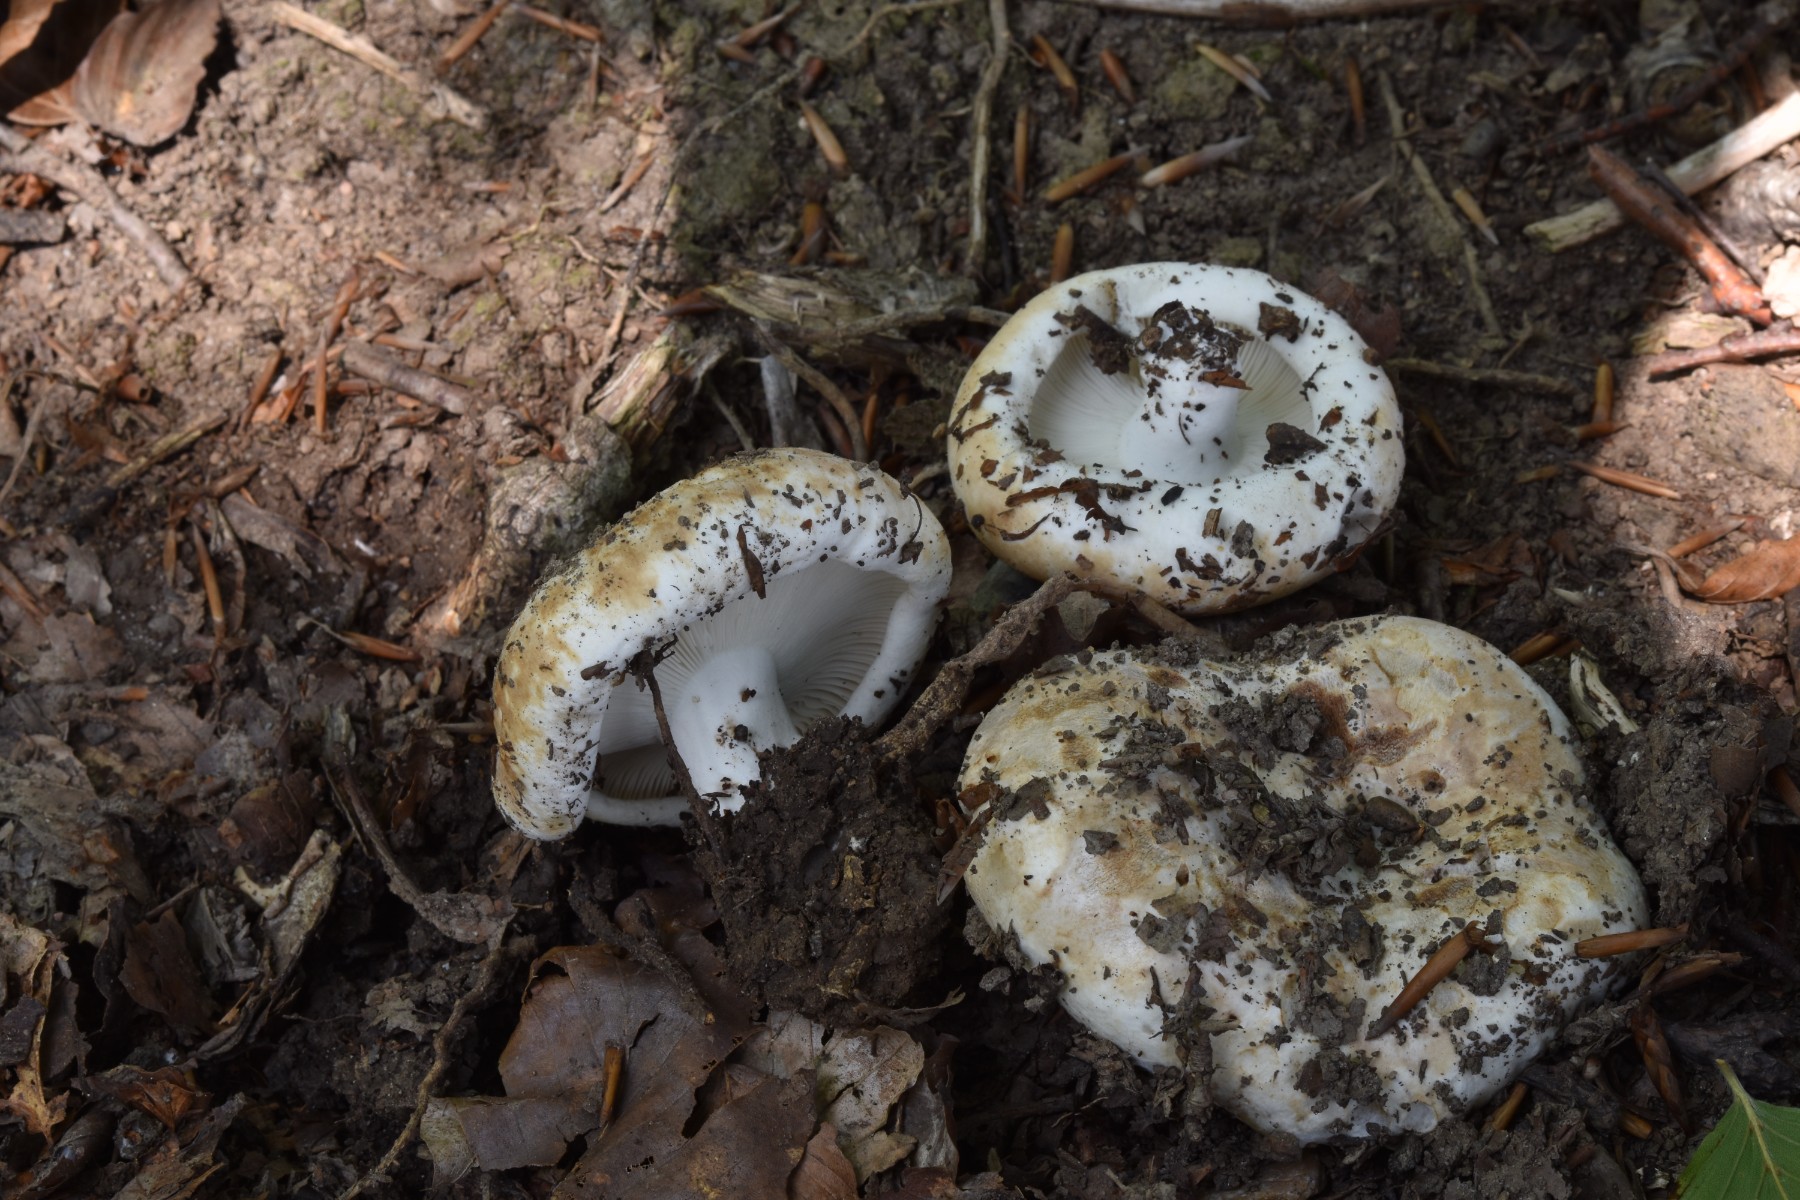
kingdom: Fungi
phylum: Basidiomycota
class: Agaricomycetes
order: Russulales
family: Russulaceae
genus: Russula
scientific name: Russula chloroides
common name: grønhalset tragt-skørhat
